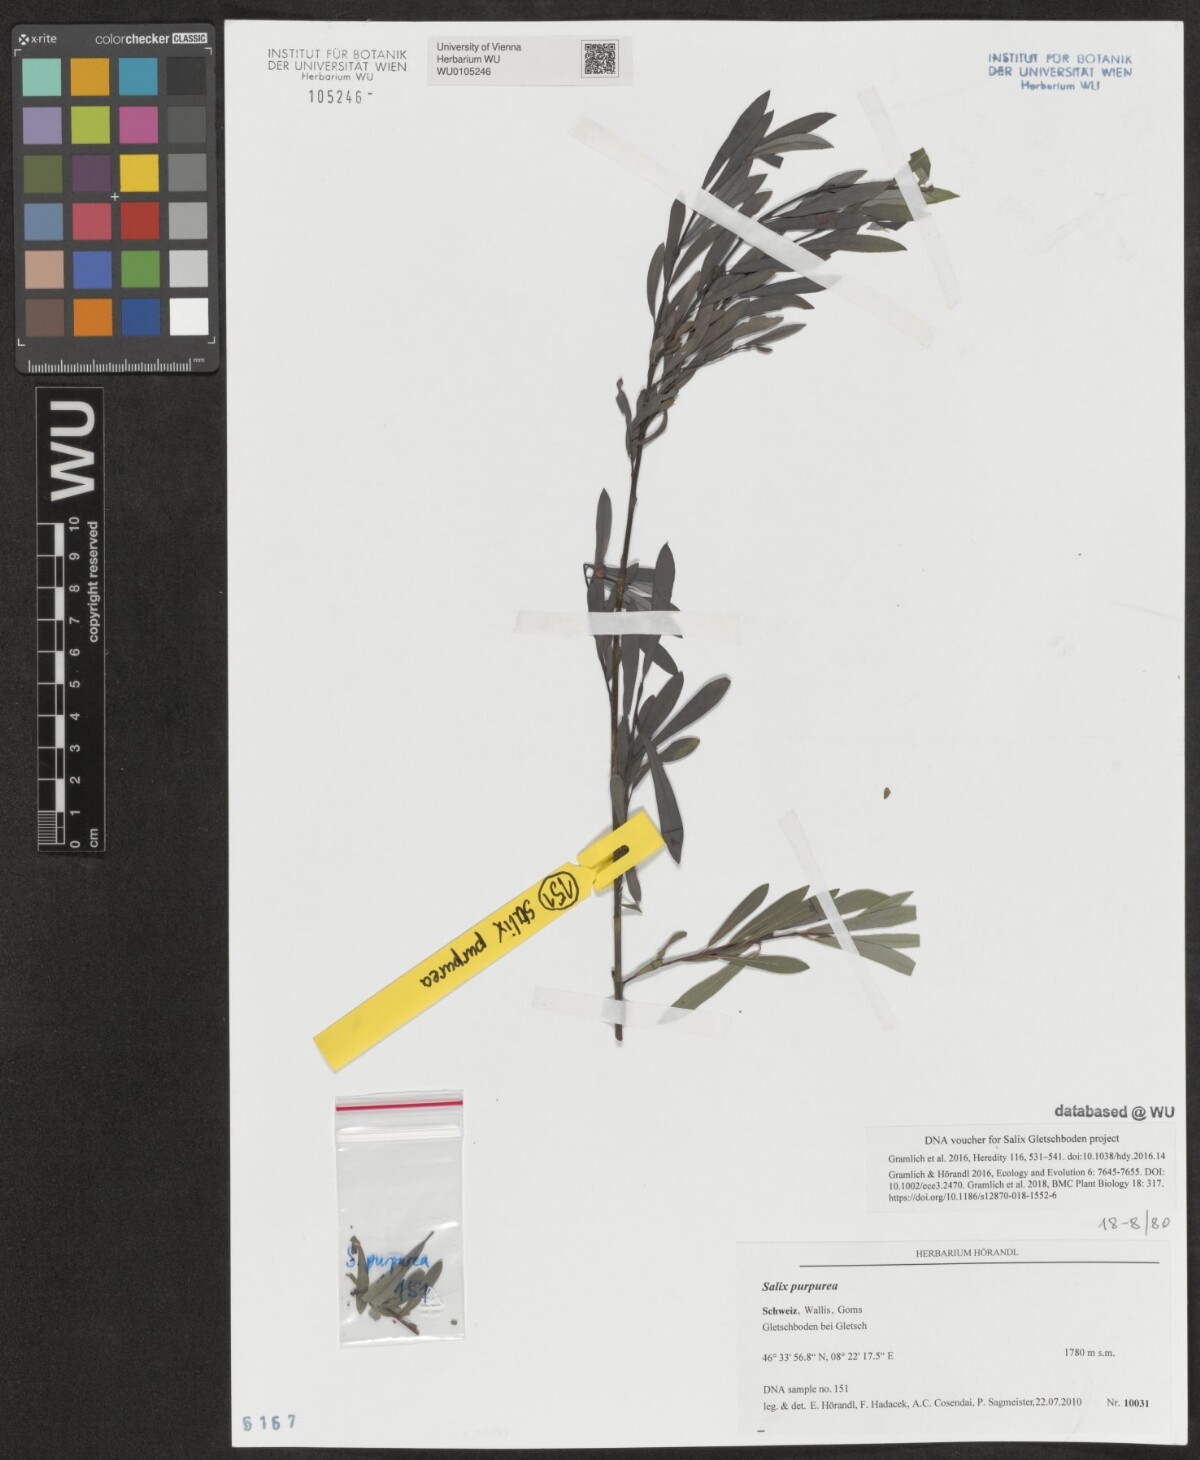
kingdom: Plantae
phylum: Tracheophyta
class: Magnoliopsida
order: Malpighiales
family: Salicaceae
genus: Salix
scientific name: Salix purpurea
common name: Purple willow
